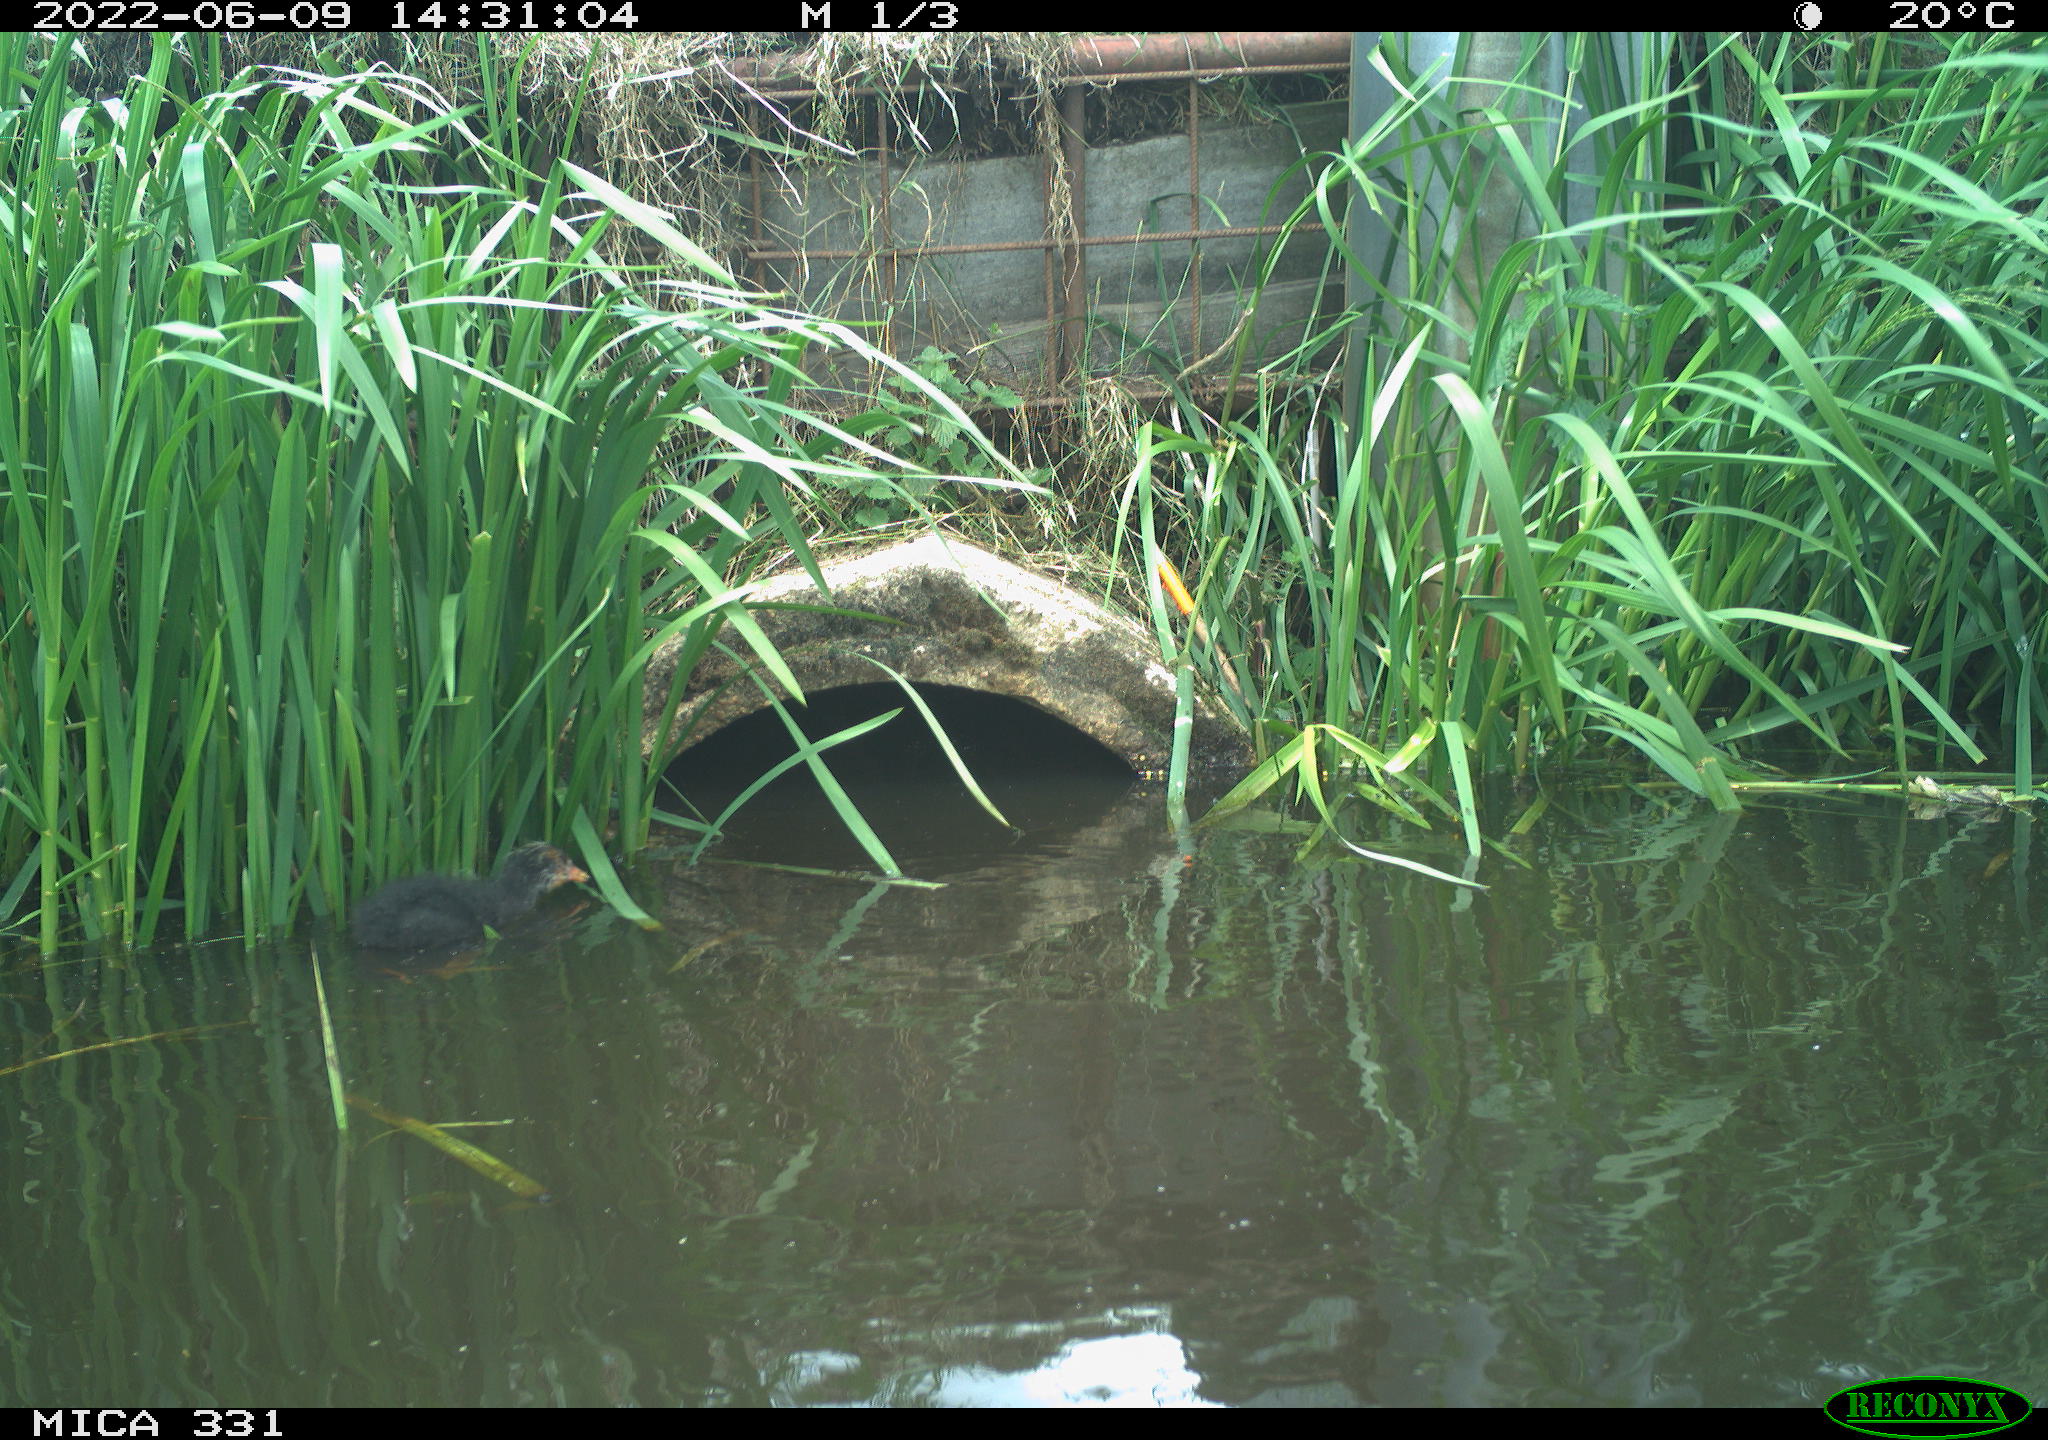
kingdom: Animalia
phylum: Chordata
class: Aves
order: Gruiformes
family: Rallidae
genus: Fulica
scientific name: Fulica atra
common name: Eurasian coot
